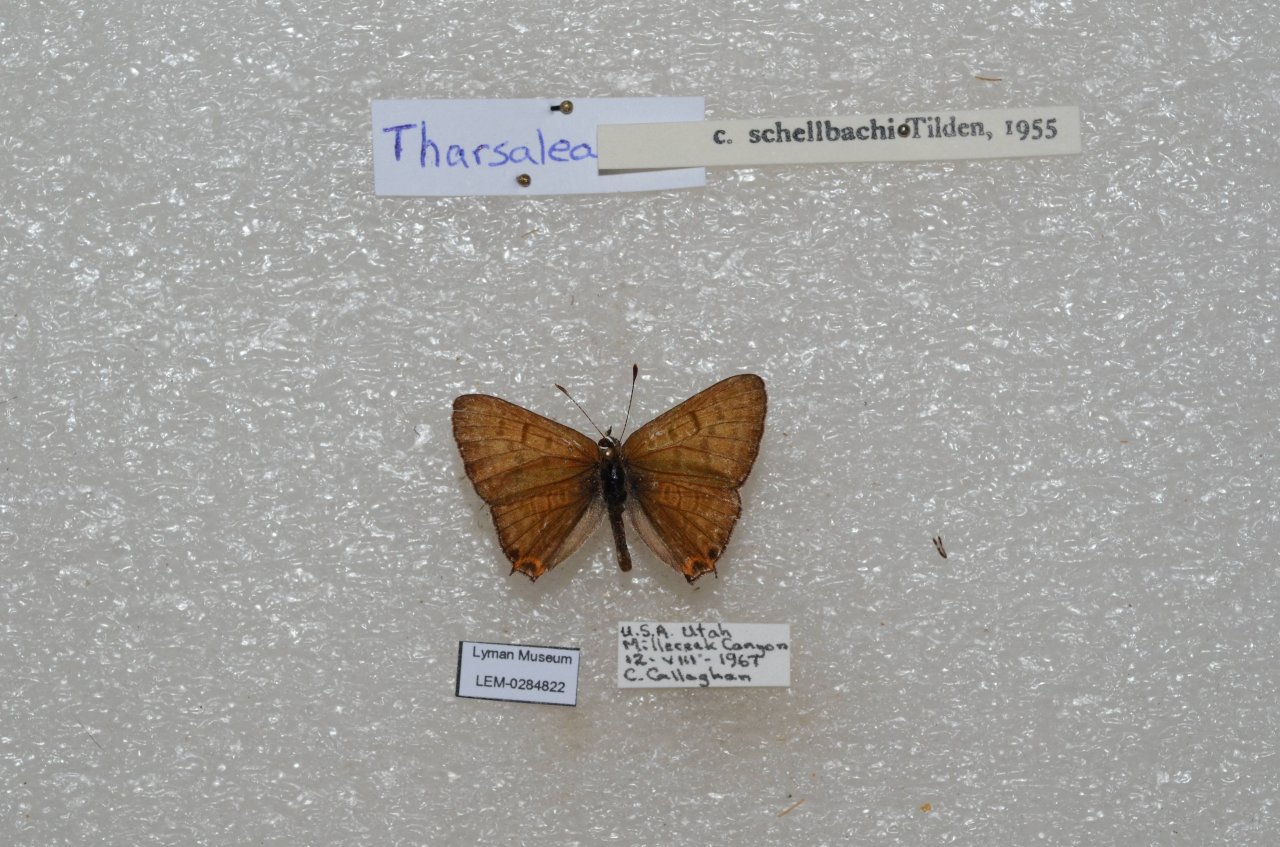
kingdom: Animalia
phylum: Arthropoda
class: Insecta
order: Lepidoptera
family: Sesiidae
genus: Sesia
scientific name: Sesia Lycaena arota
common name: Tailed Copper
